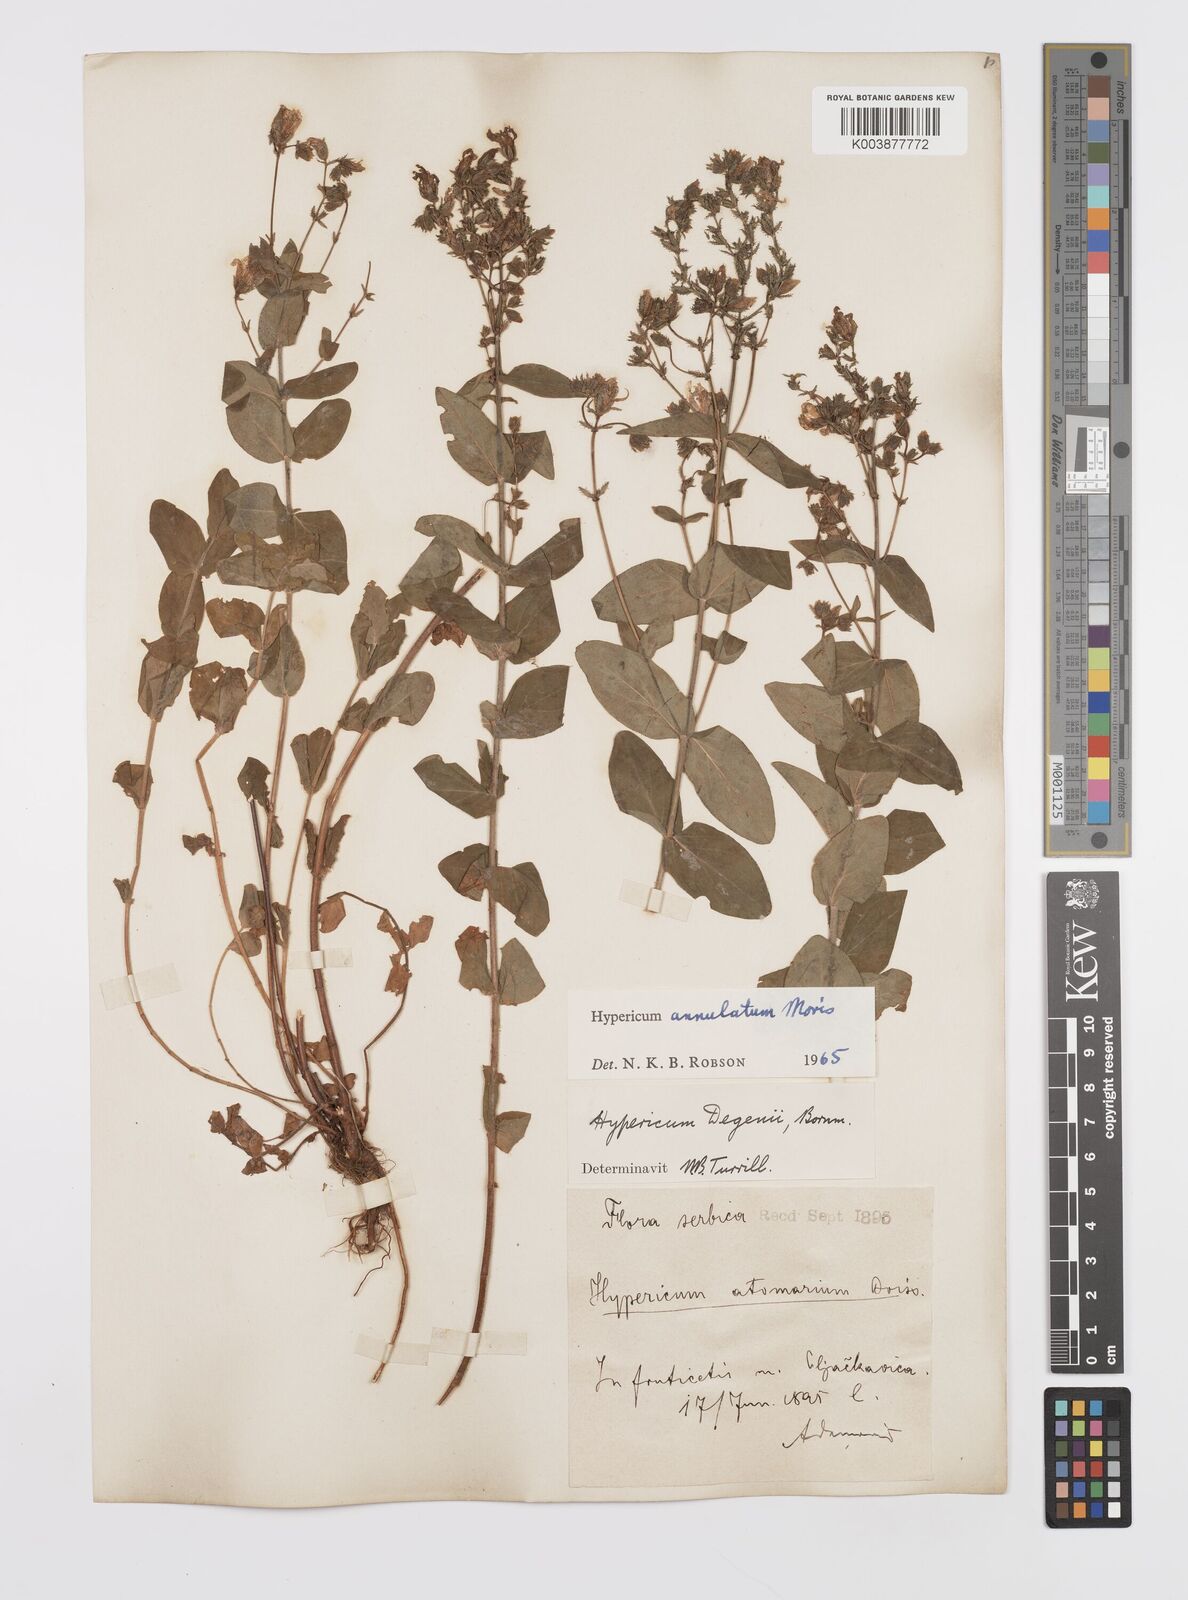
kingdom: Plantae
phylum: Tracheophyta
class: Magnoliopsida
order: Malpighiales
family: Hypericaceae
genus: Hypericum
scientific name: Hypericum annulatum
